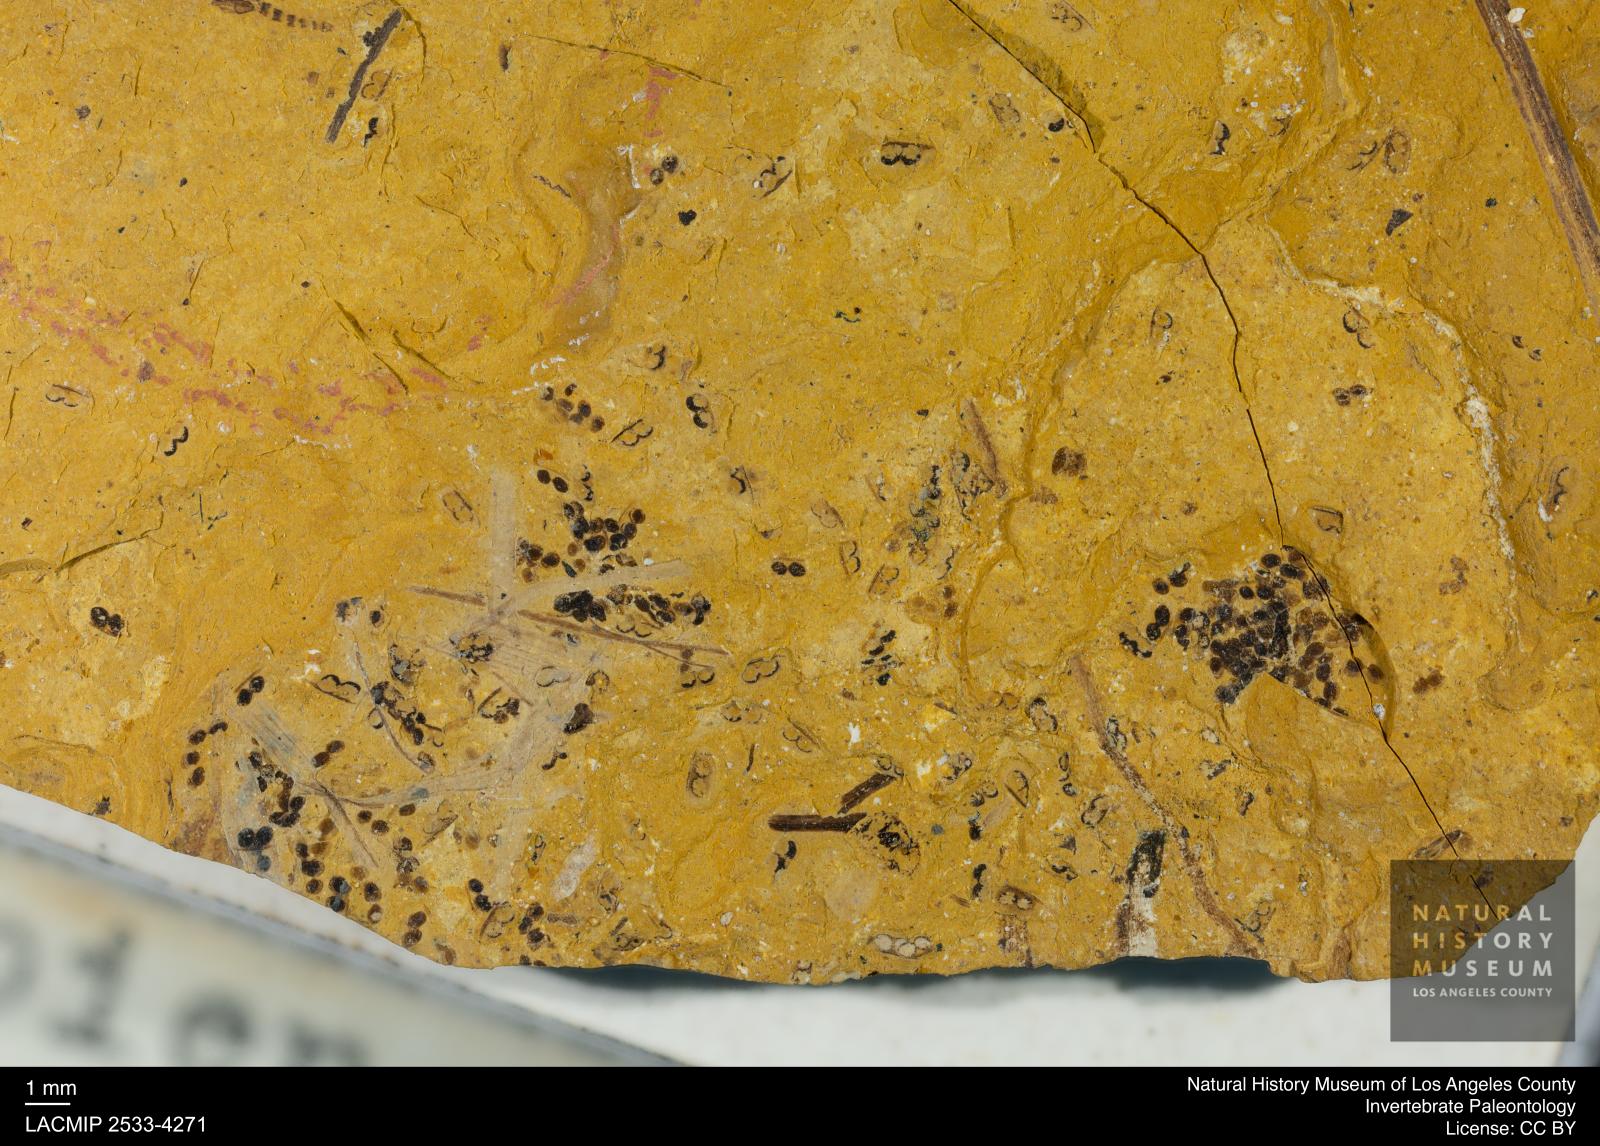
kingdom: Animalia
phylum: Arthropoda
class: Branchiopoda
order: Diplostraca
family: Daphniidae
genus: Daphnia
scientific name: Daphnia
